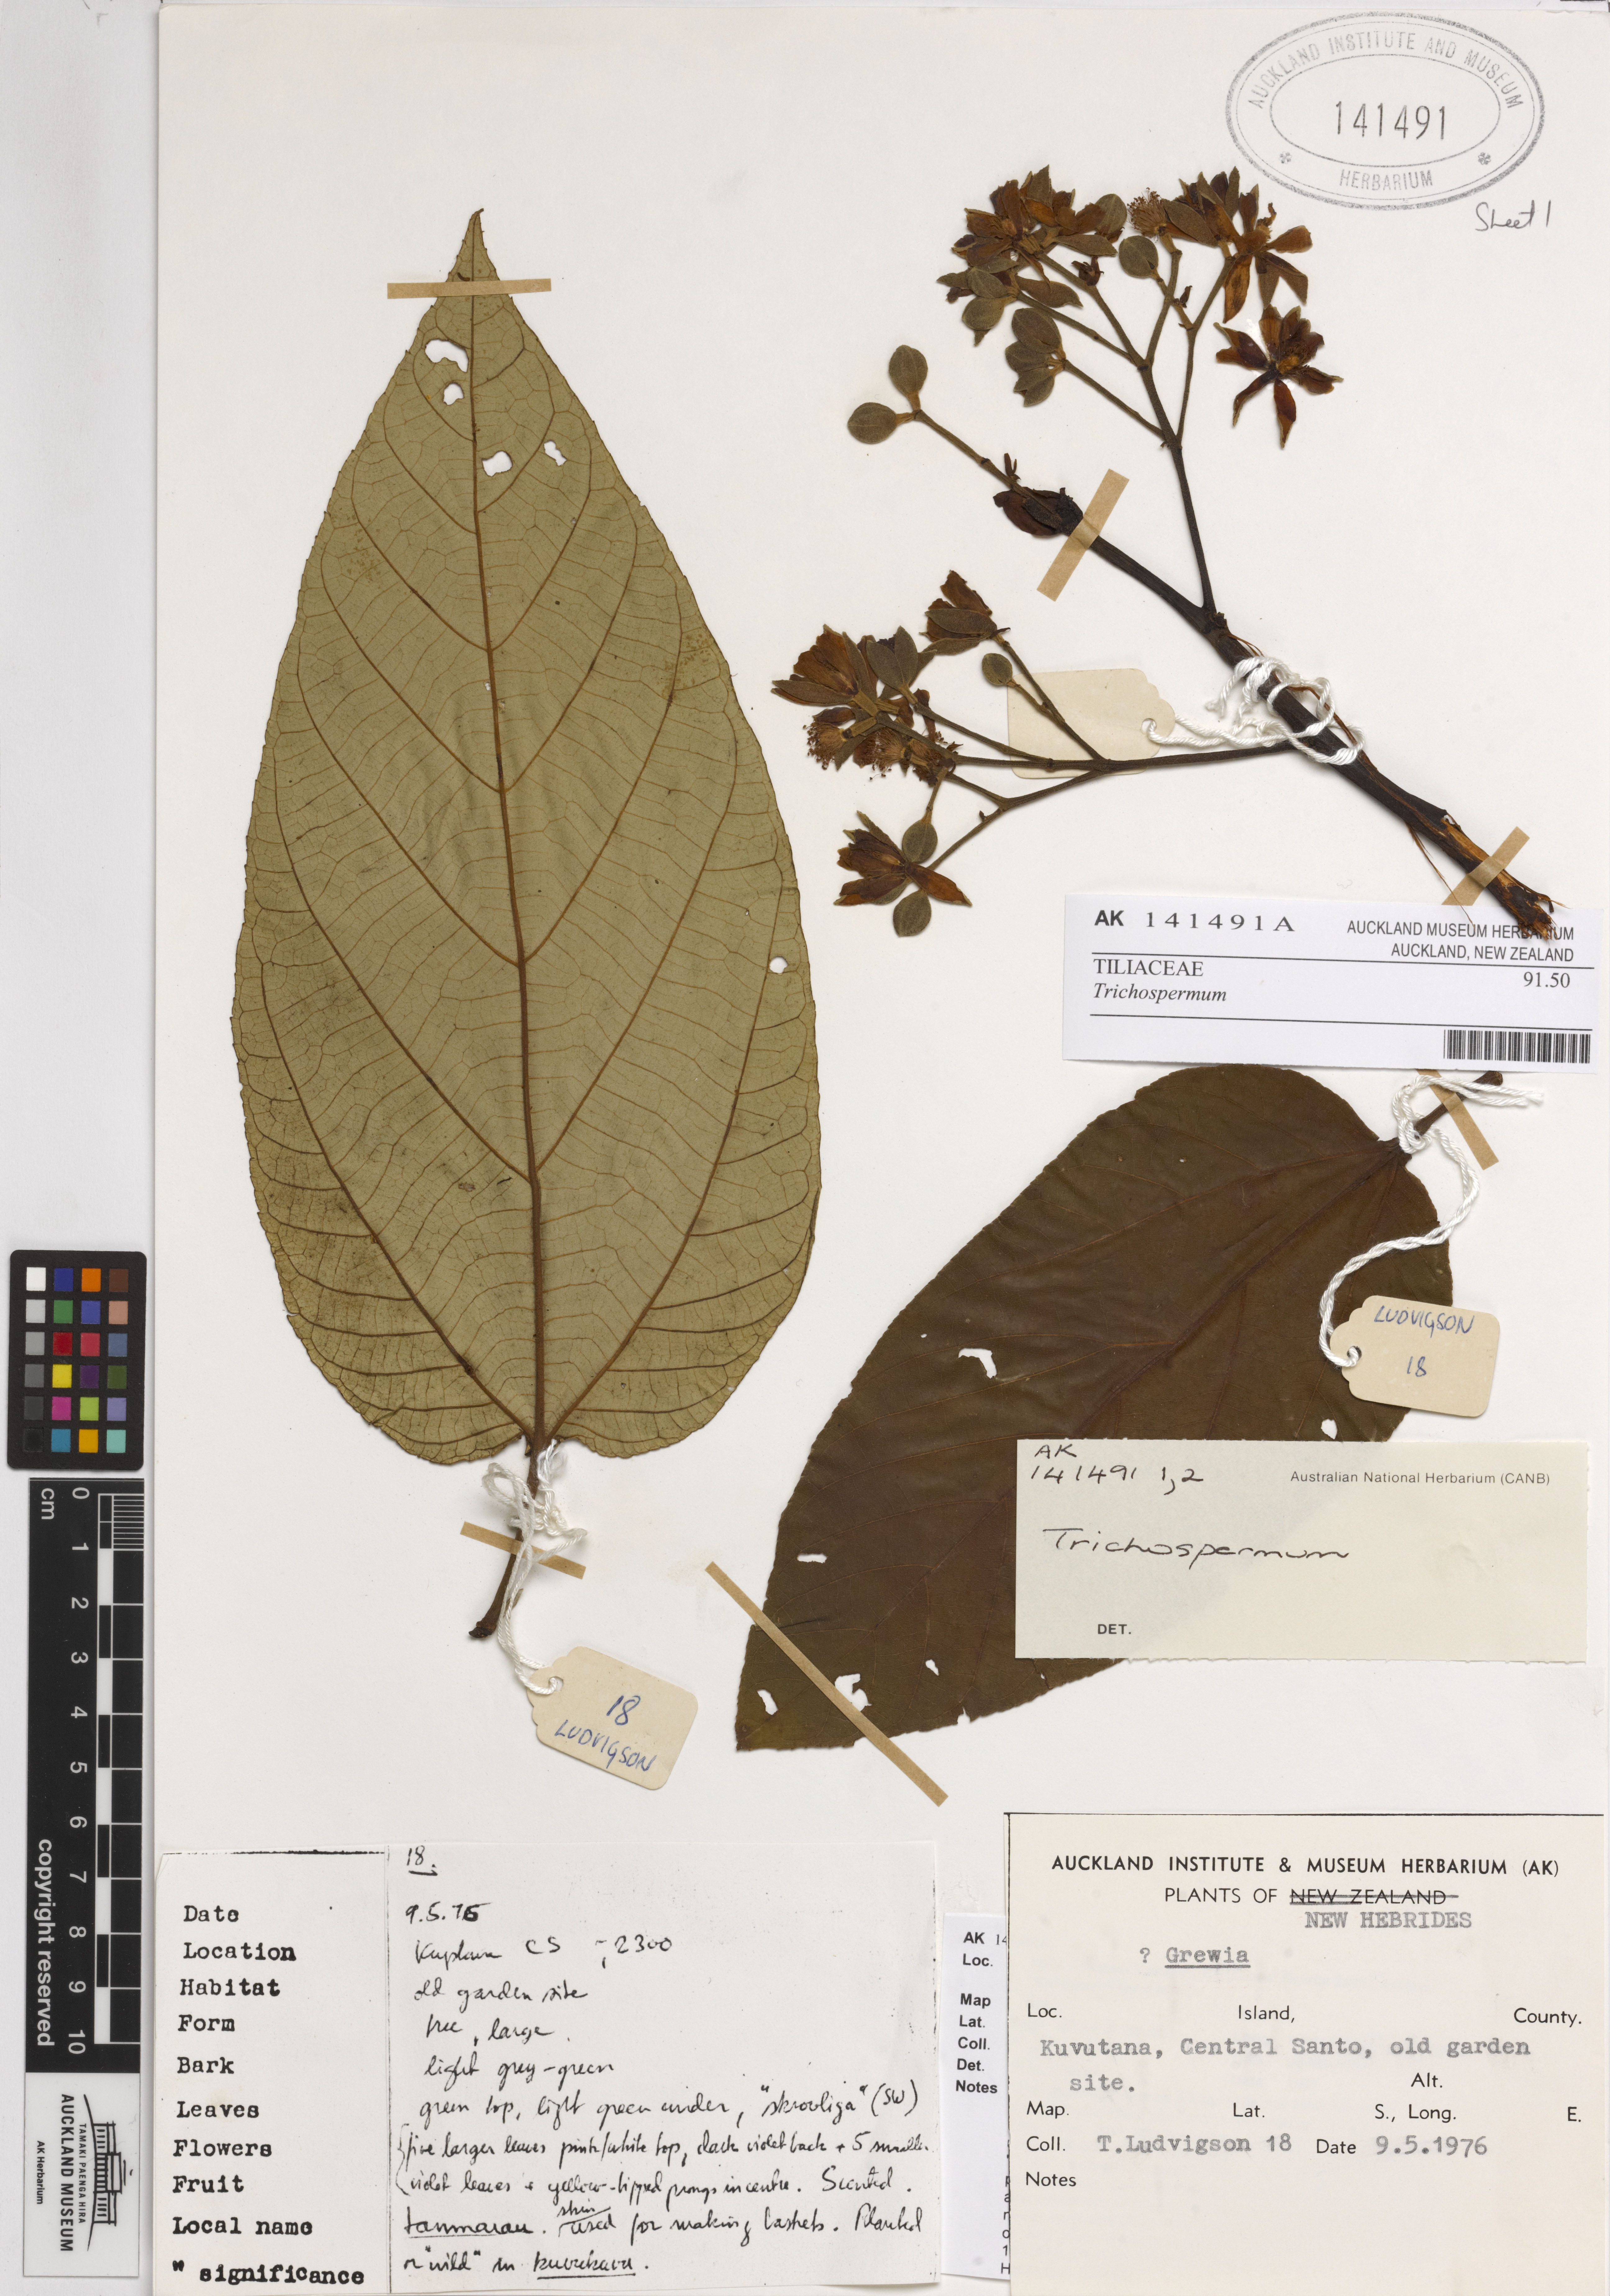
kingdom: Plantae
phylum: Tracheophyta
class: Magnoliopsida
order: Malvales
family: Malvaceae
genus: Trichospermum
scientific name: Trichospermum
